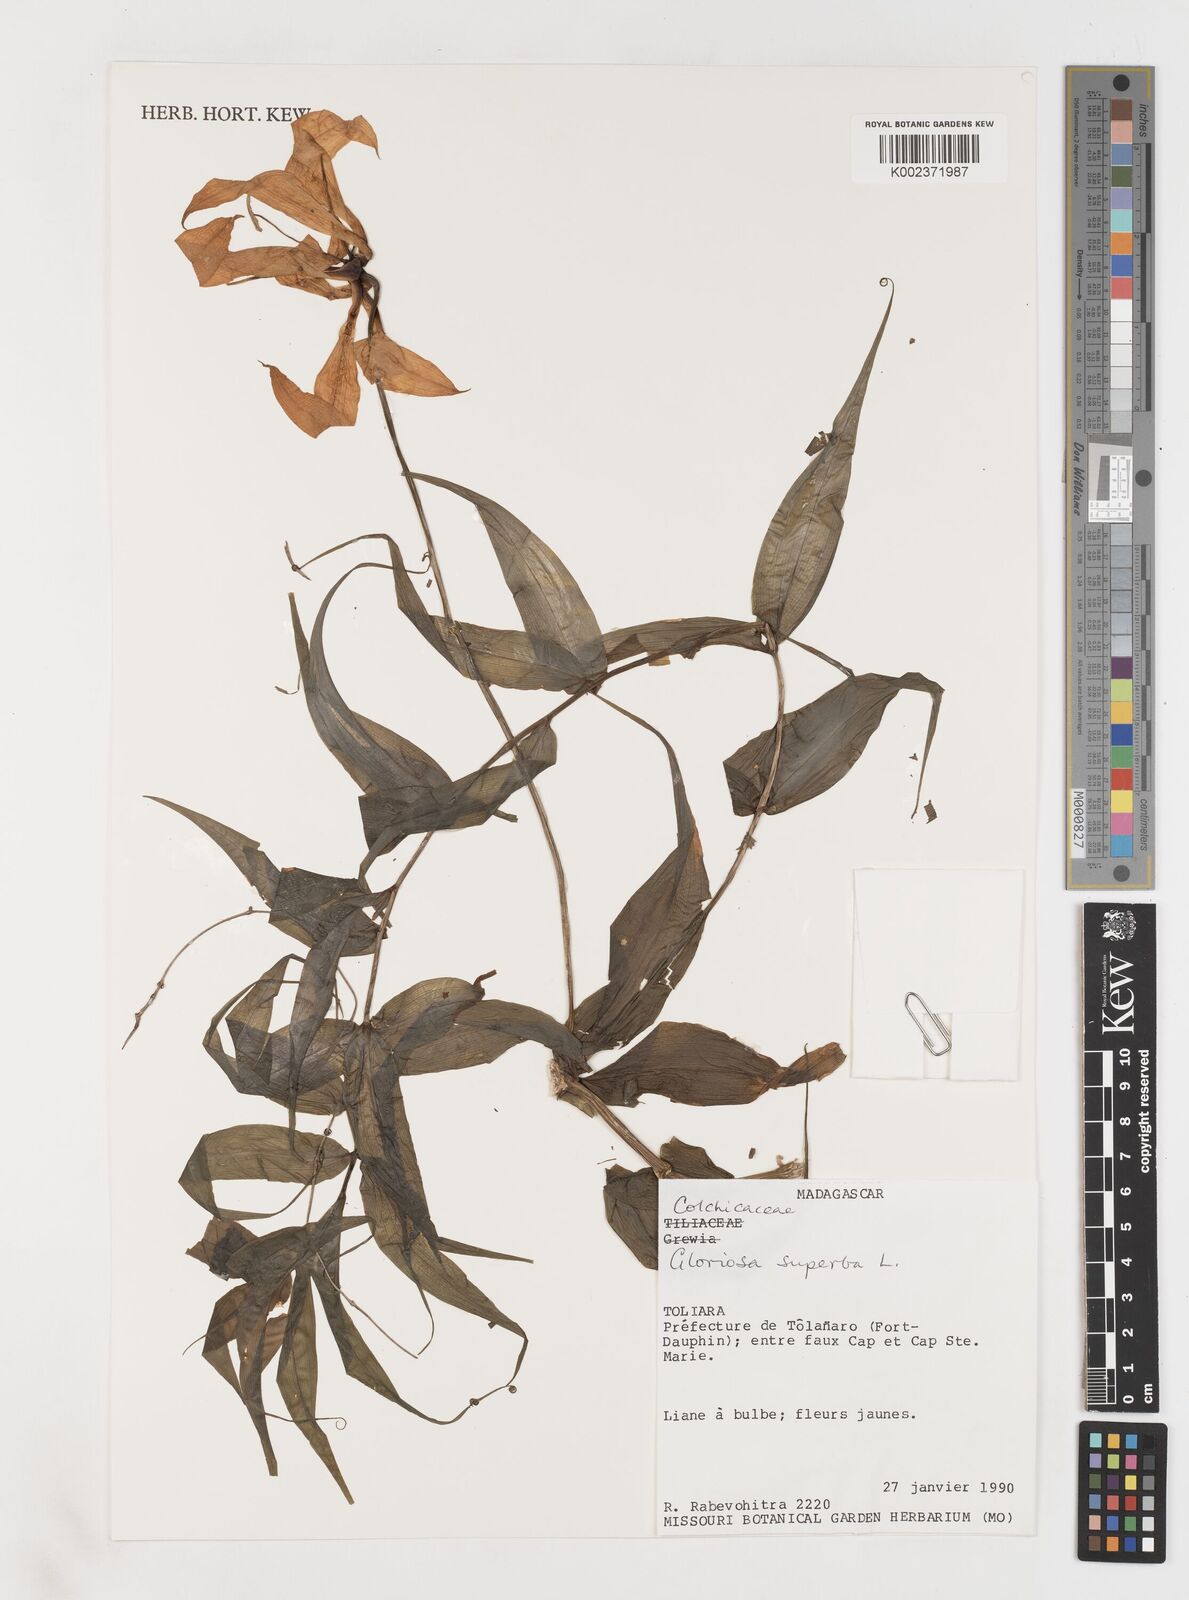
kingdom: Plantae
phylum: Tracheophyta
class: Liliopsida
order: Liliales
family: Colchicaceae
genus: Gloriosa
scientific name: Gloriosa simplex
